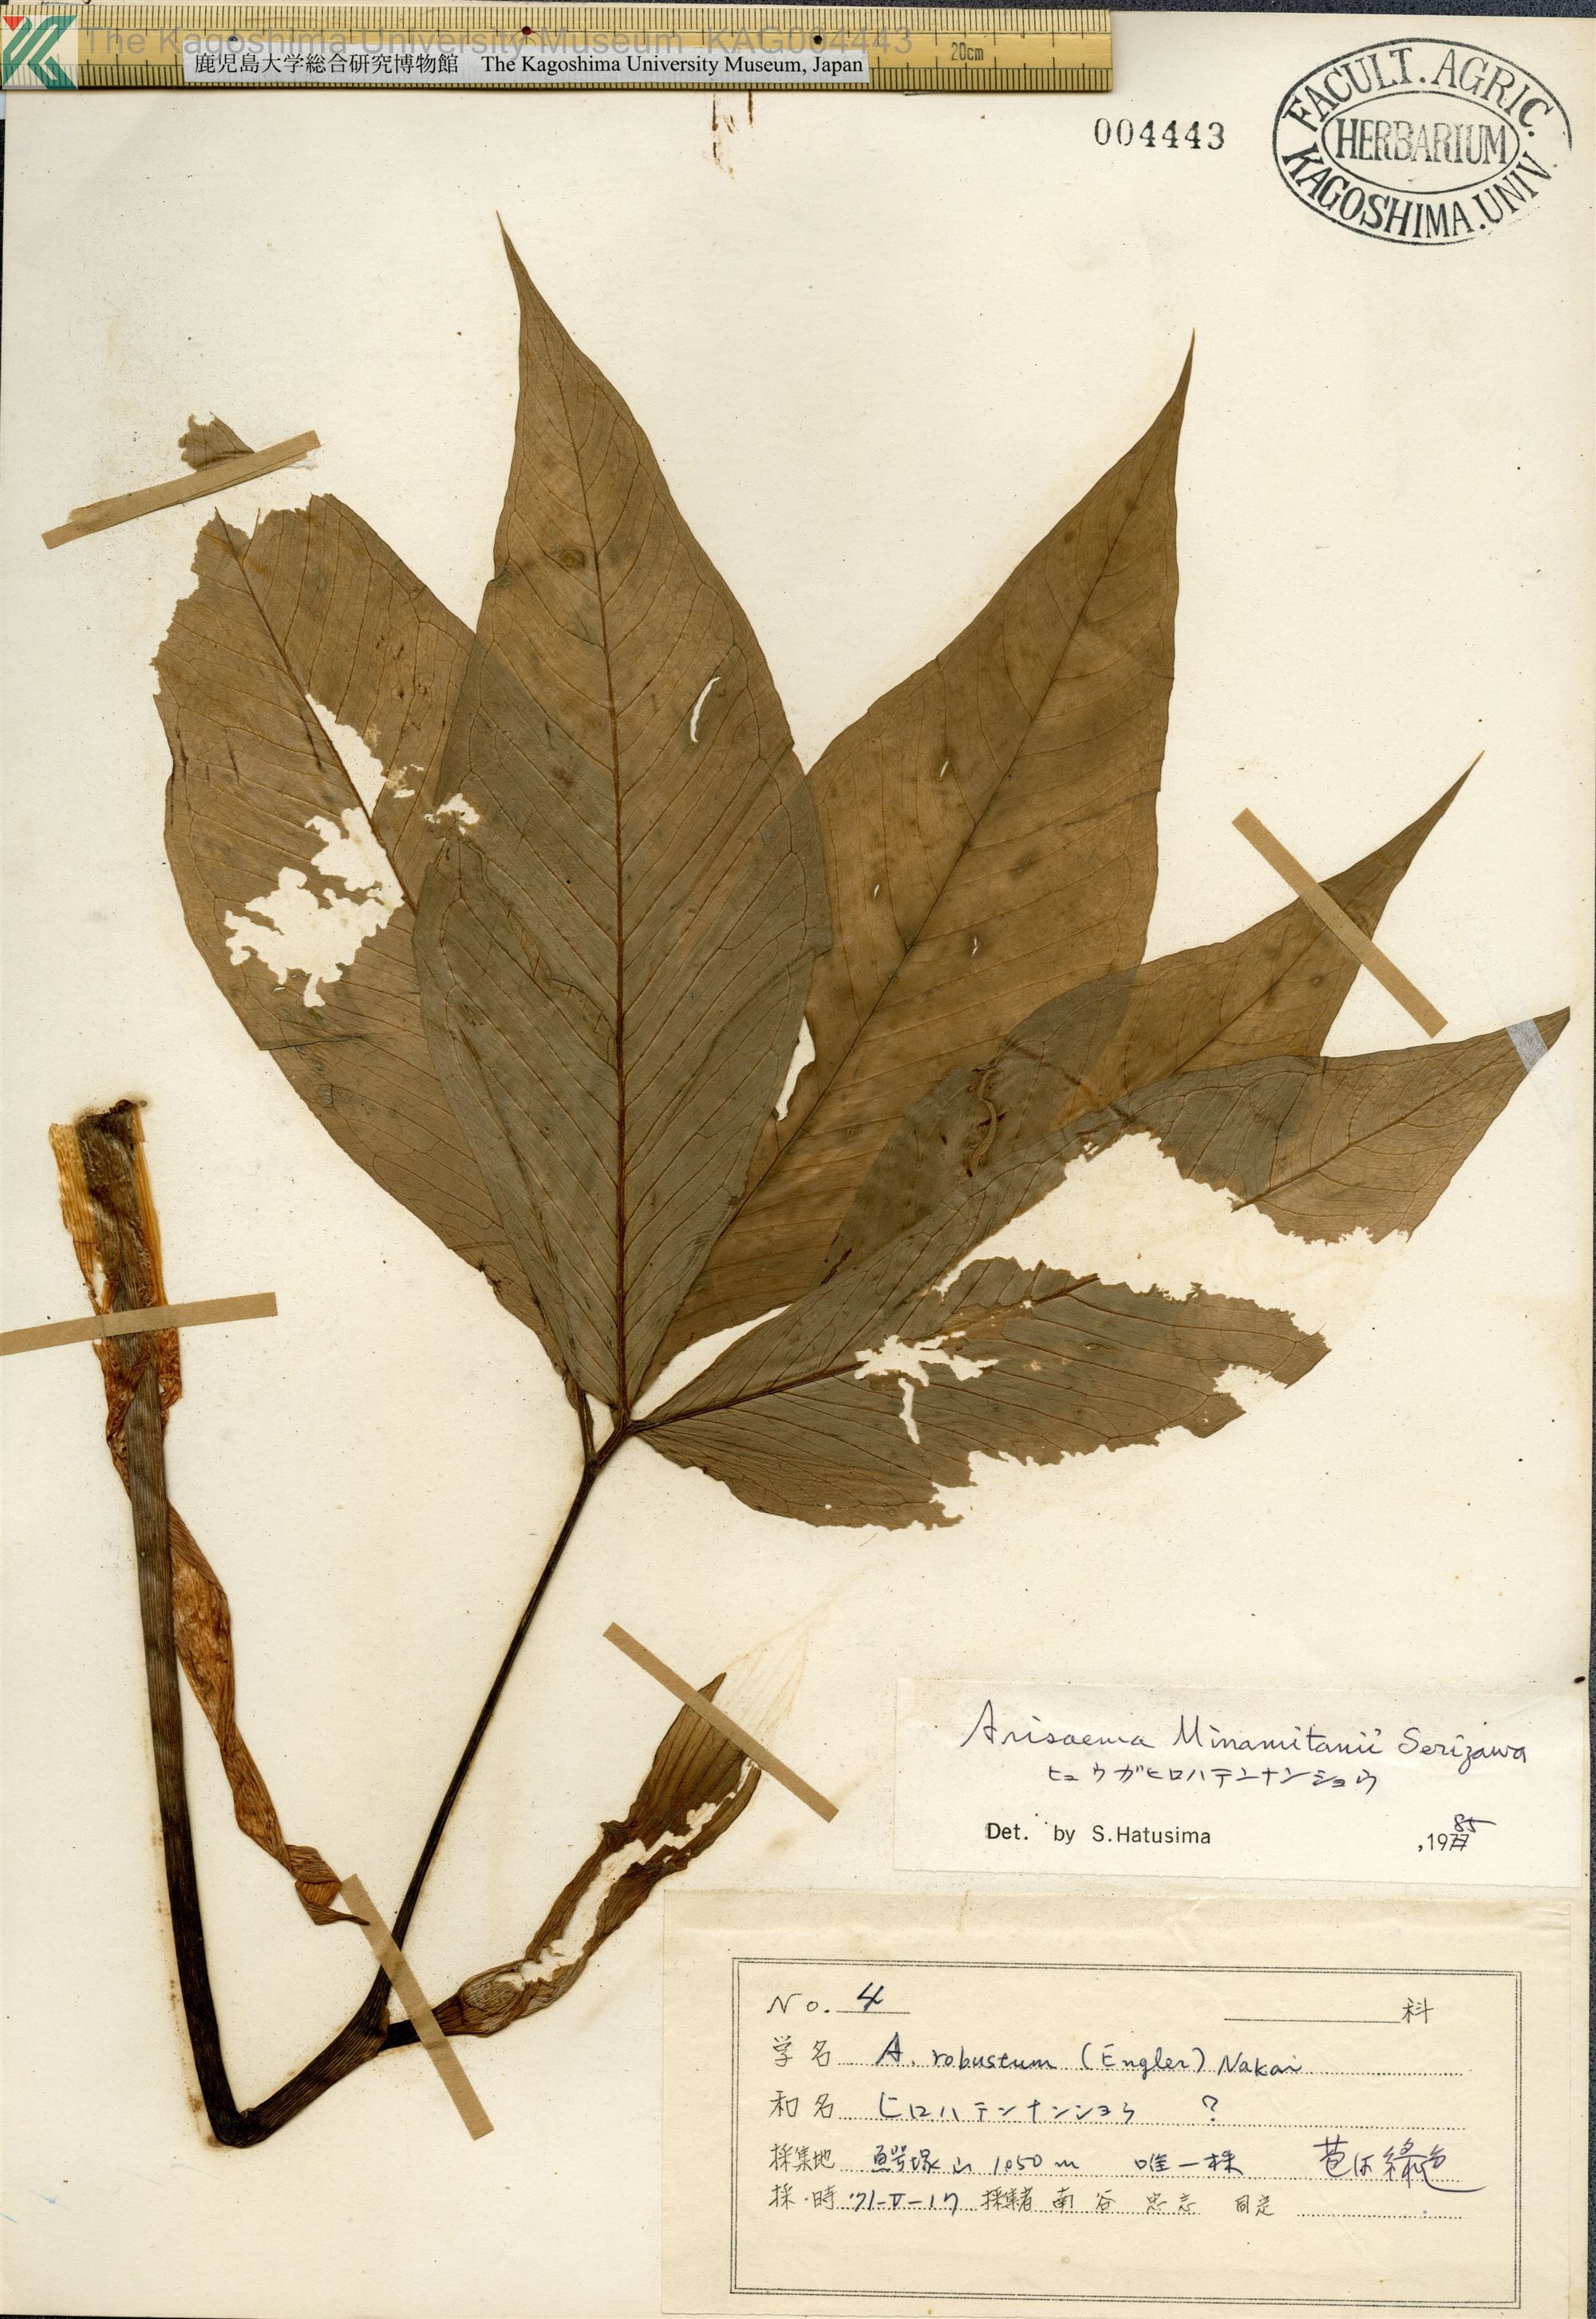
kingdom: Plantae
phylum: Tracheophyta
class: Liliopsida
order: Alismatales
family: Araceae
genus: Arisaema
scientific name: Arisaema minamitanii
